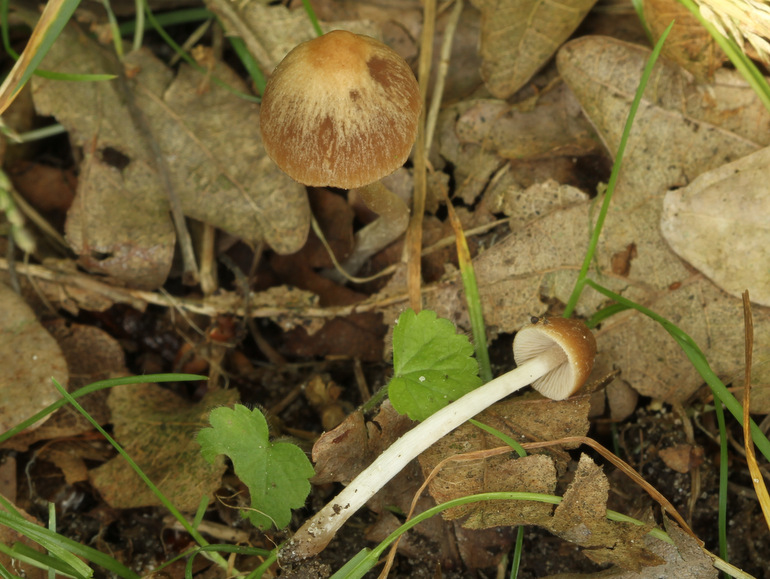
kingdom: Fungi
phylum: Basidiomycota
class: Agaricomycetes
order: Agaricales
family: Psathyrellaceae
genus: Parasola
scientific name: Parasola conopilea
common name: kegle-hjulhat
